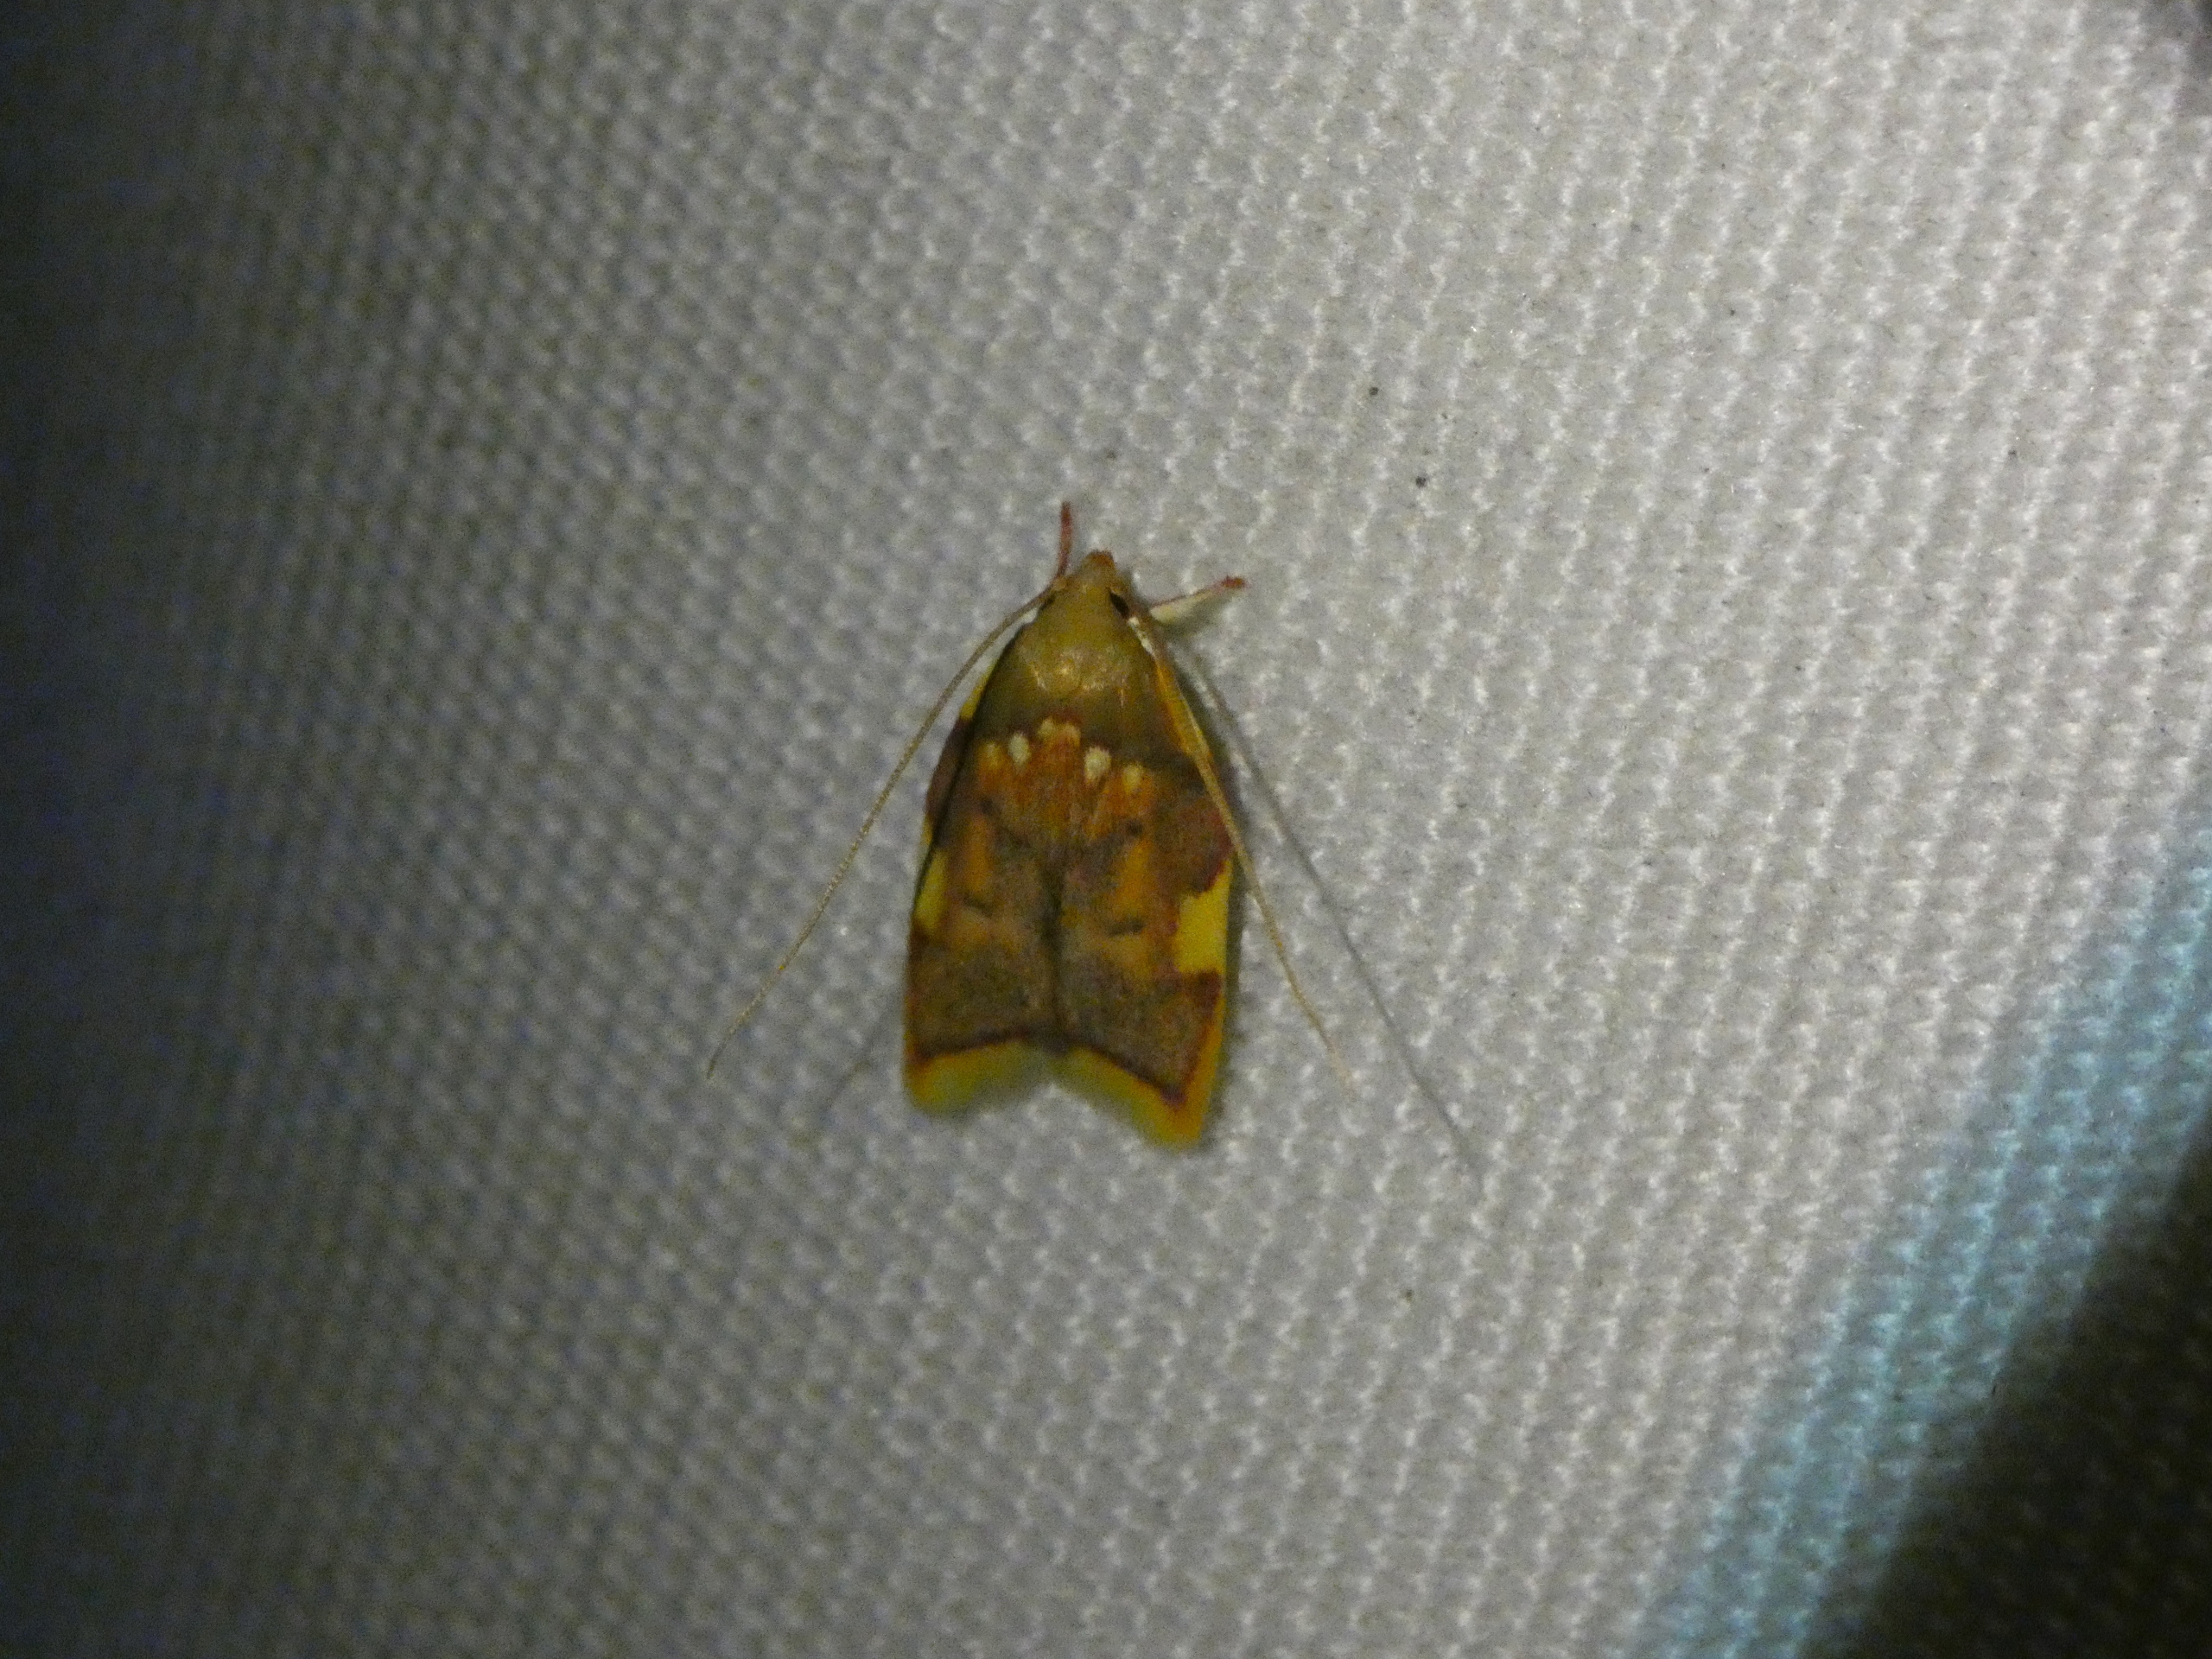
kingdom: Animalia
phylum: Arthropoda
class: Insecta
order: Lepidoptera
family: Peleopodidae
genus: Carcina
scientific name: Carcina quercana
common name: Egeprydvinge
